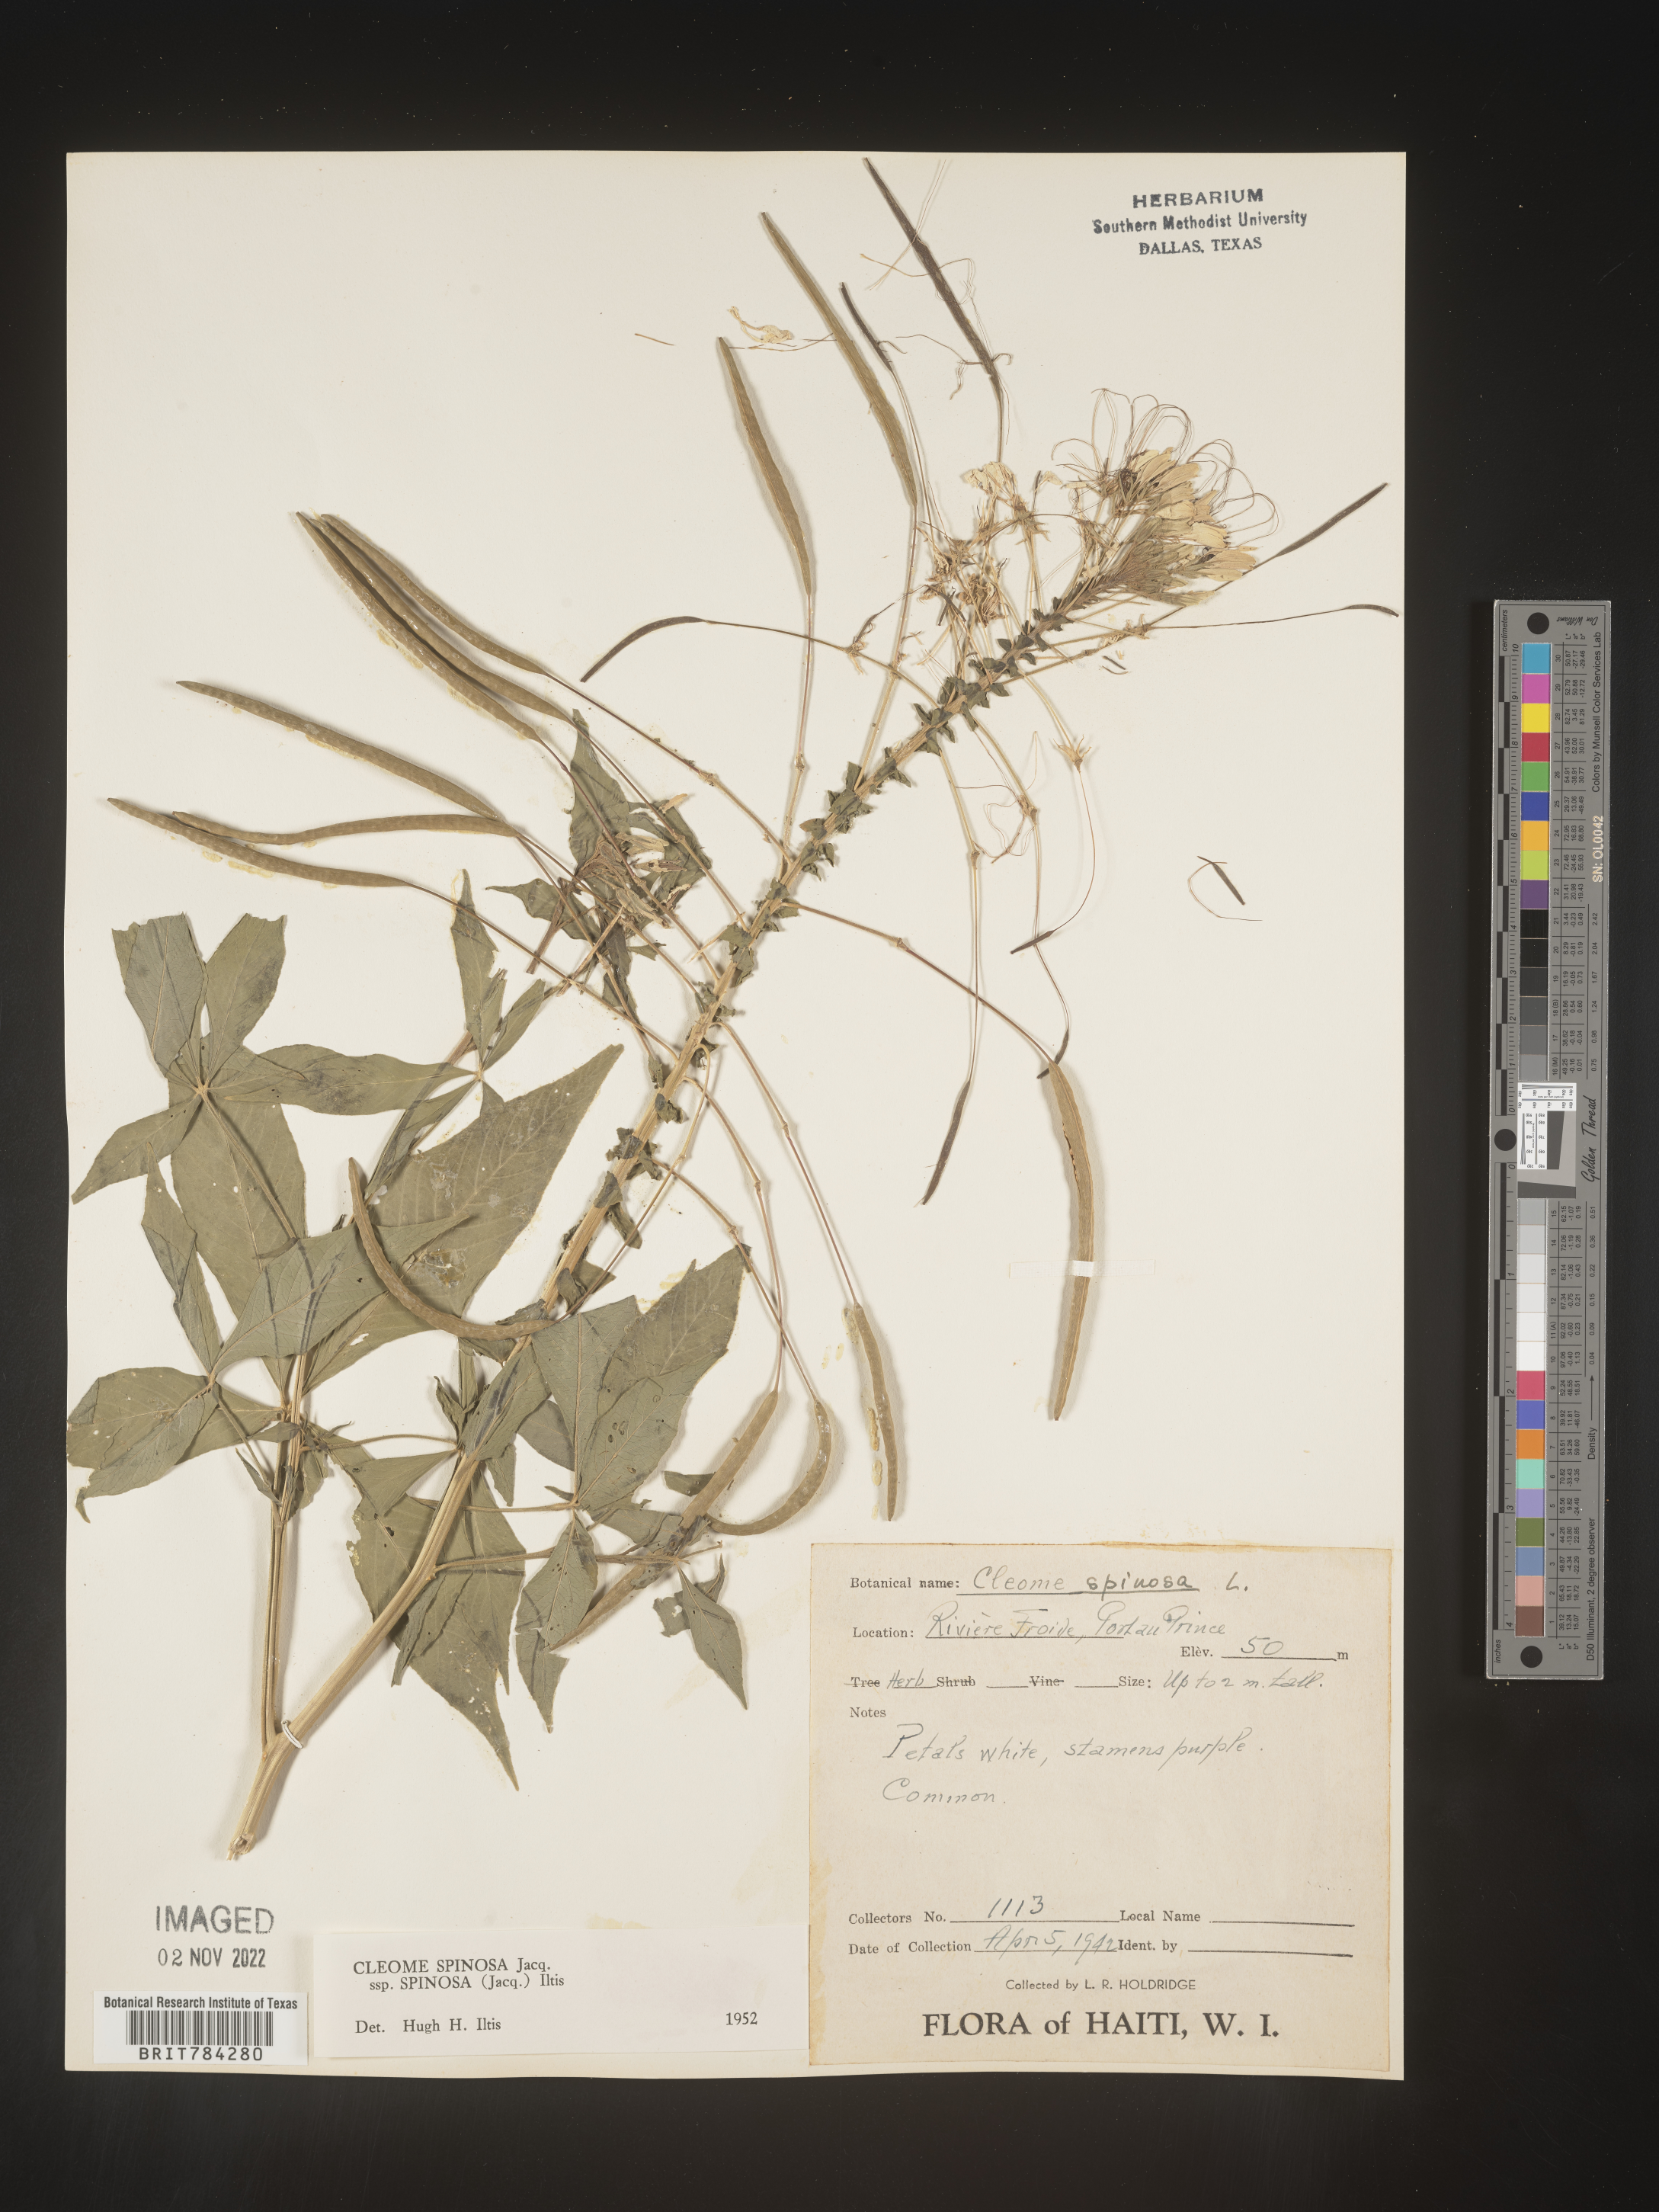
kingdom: Plantae
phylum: Tracheophyta
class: Magnoliopsida
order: Brassicales
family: Cleomaceae
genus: Cleome
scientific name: Cleome
